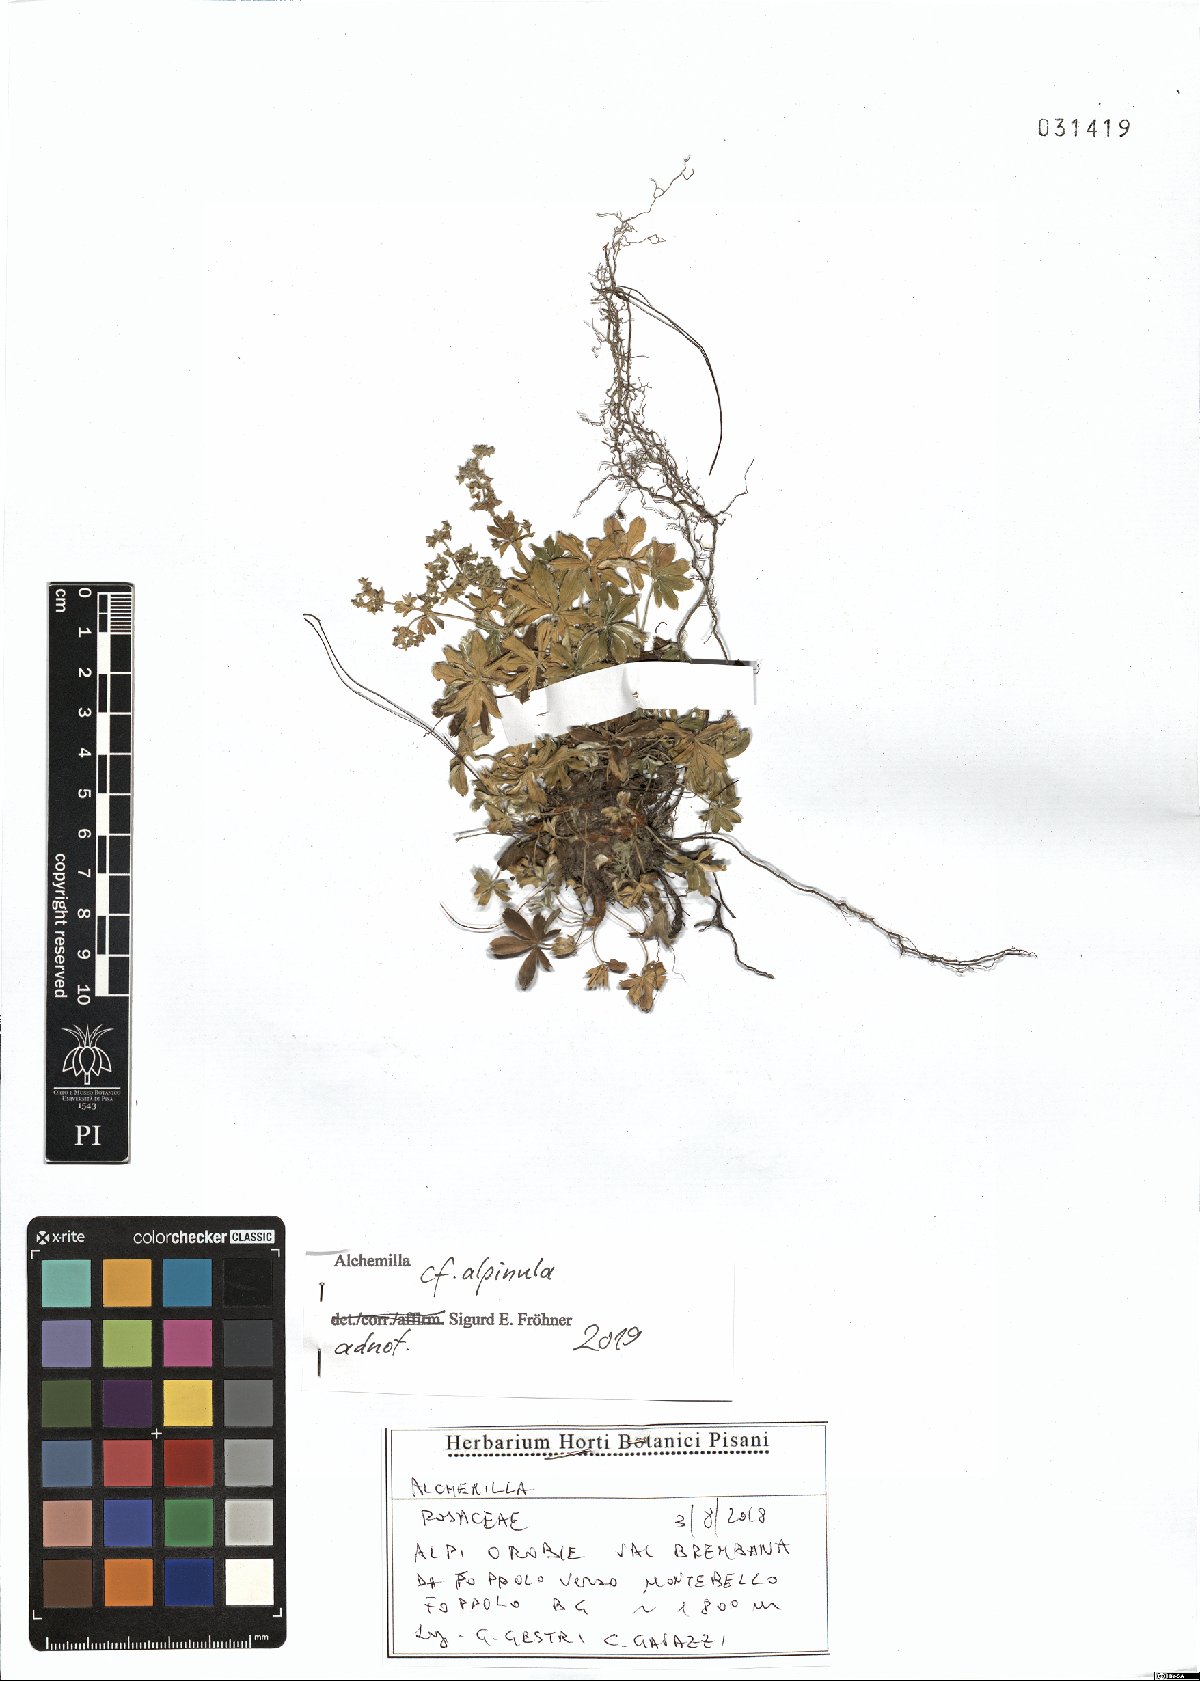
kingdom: Plantae
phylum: Tracheophyta
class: Magnoliopsida
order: Rosales
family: Rosaceae
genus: Alchemilla
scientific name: Alchemilla alpinula
